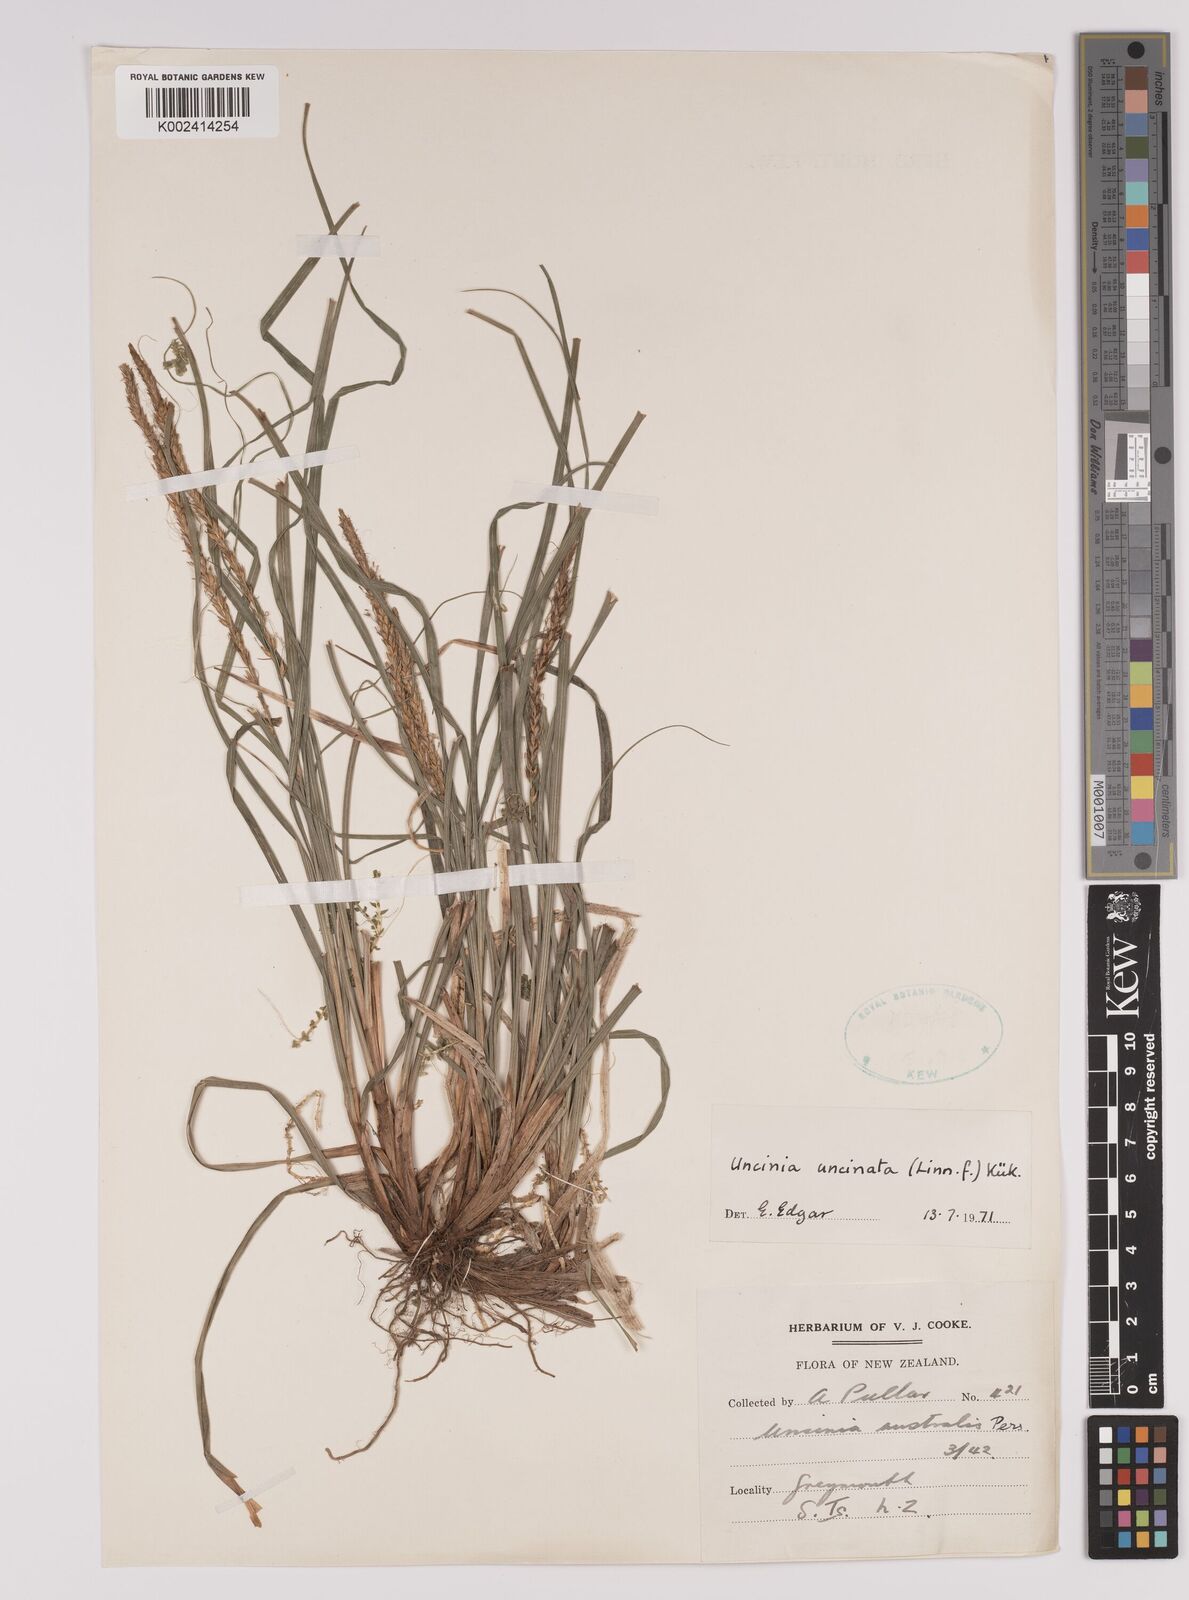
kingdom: Plantae
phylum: Tracheophyta
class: Liliopsida
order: Poales
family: Cyperaceae
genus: Carex
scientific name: Carex uncinata
